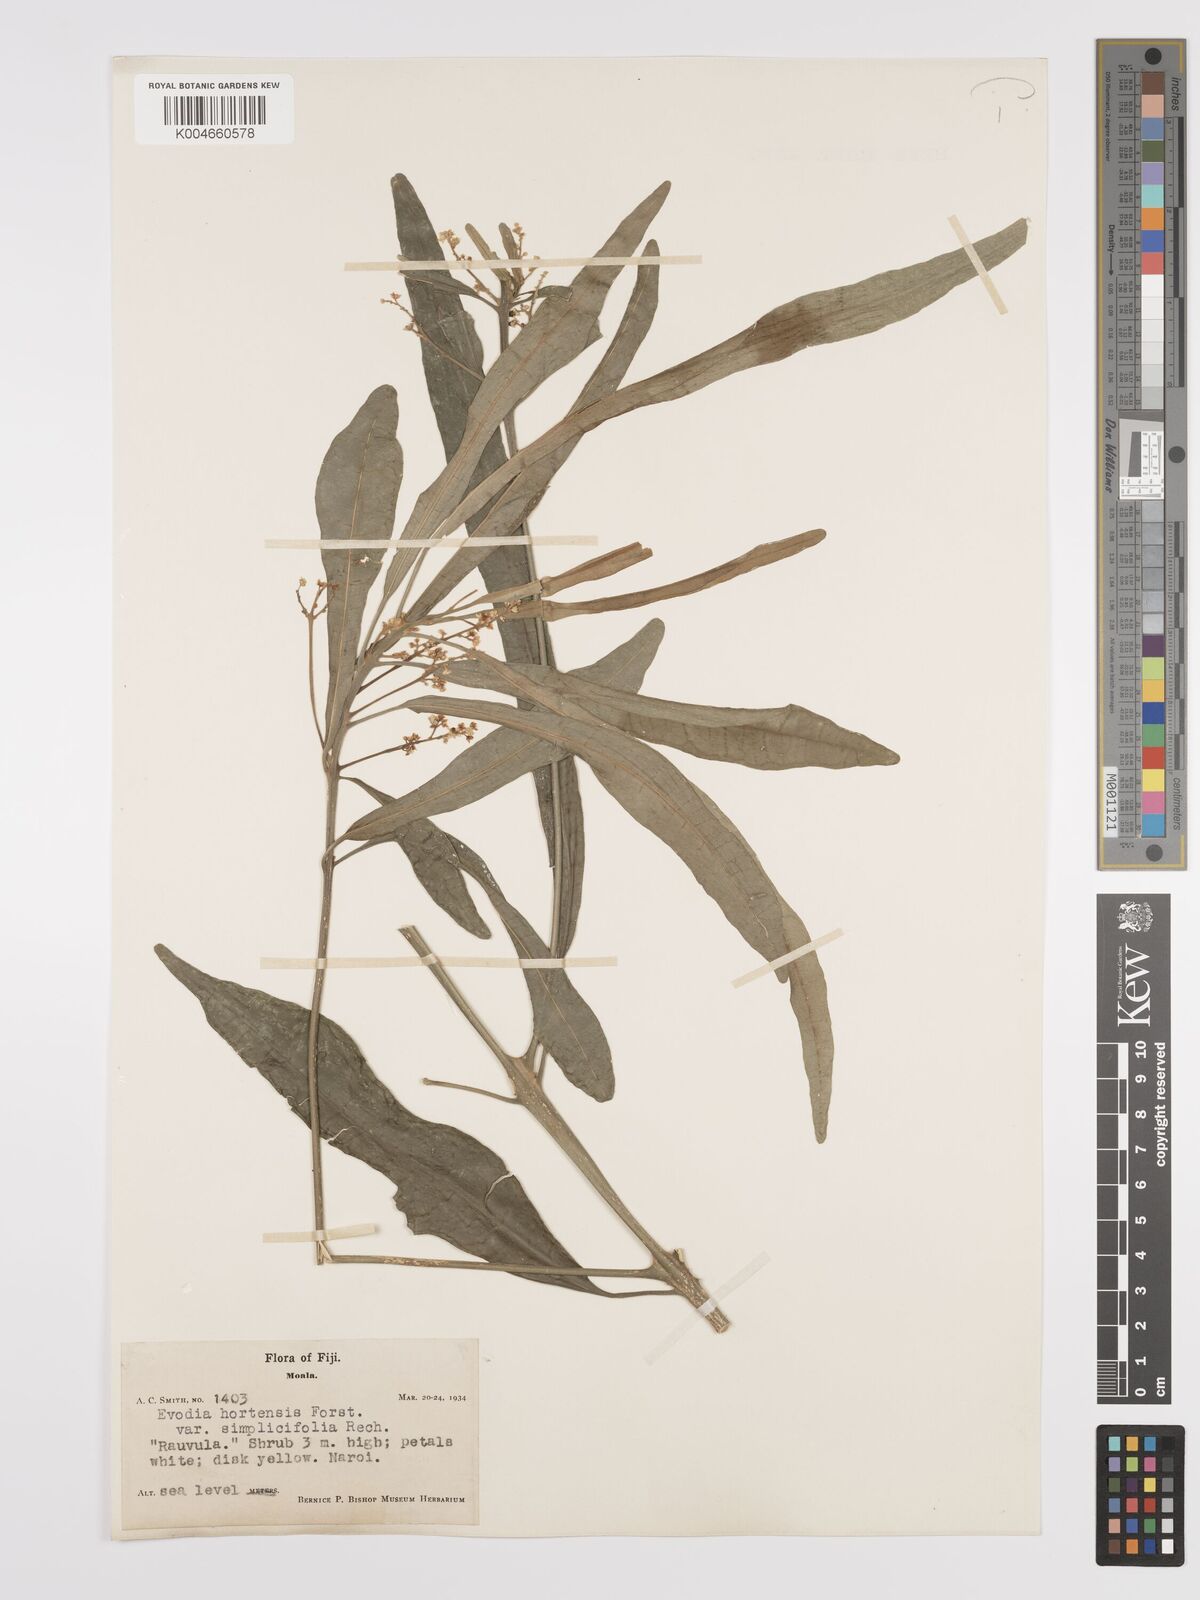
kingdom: Plantae
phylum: Tracheophyta
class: Magnoliopsida
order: Sapindales
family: Rutaceae
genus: Euodia
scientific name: Euodia hortensis
